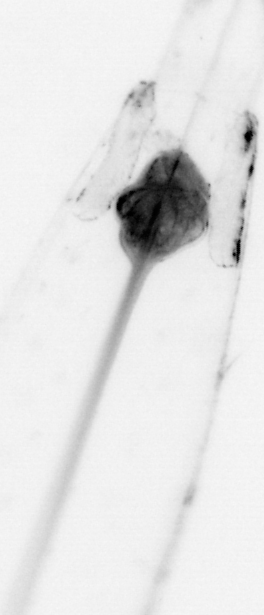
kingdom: Animalia
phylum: Chaetognatha
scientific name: Chaetognatha
